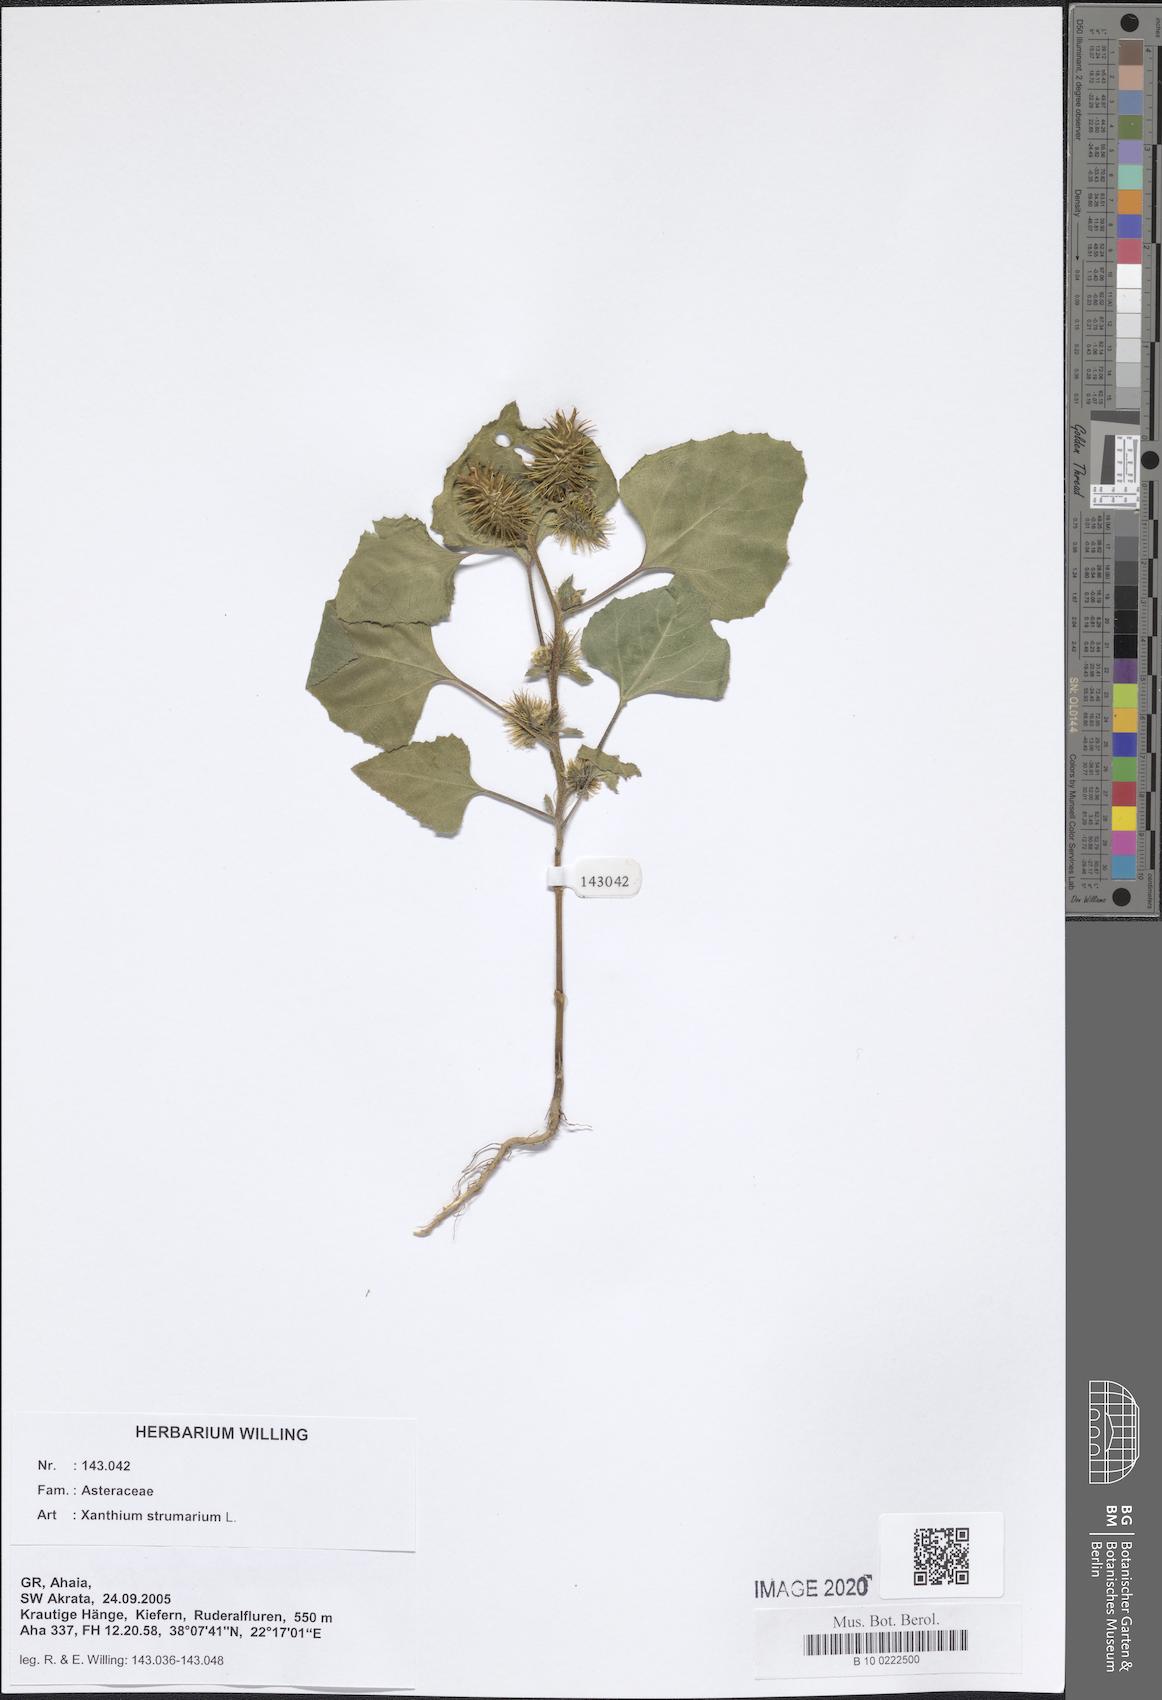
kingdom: Plantae
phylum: Tracheophyta
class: Magnoliopsida
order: Asterales
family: Asteraceae
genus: Xanthium
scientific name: Xanthium strumarium
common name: Rough cocklebur
